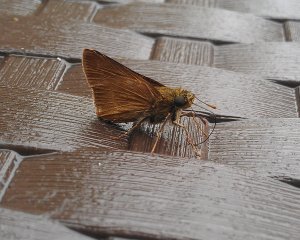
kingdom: Animalia
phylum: Arthropoda
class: Insecta
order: Lepidoptera
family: Hesperiidae
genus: Euphyes
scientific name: Euphyes vestris
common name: Dun Skipper
